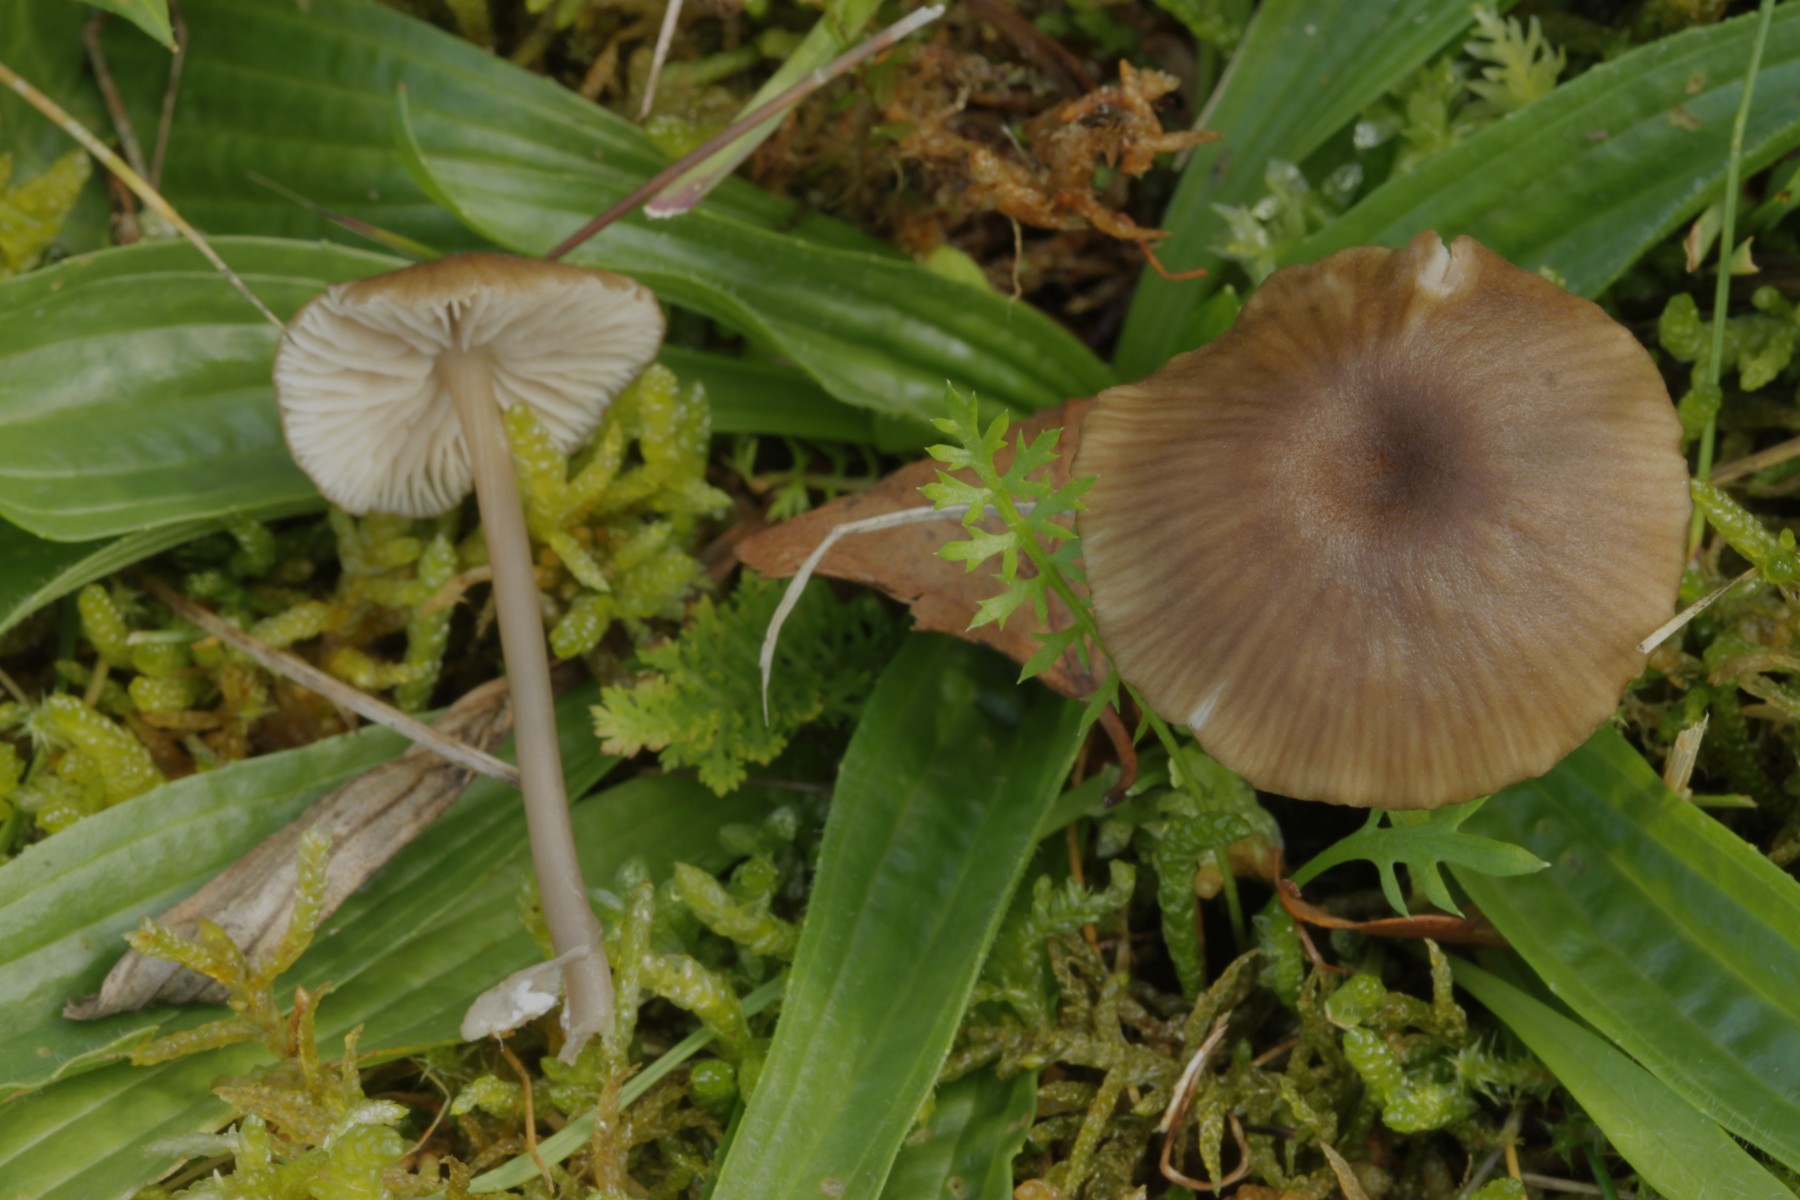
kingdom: Fungi
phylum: Basidiomycota
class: Agaricomycetes
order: Agaricales
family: Entolomataceae
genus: Entoloma
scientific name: Entoloma
